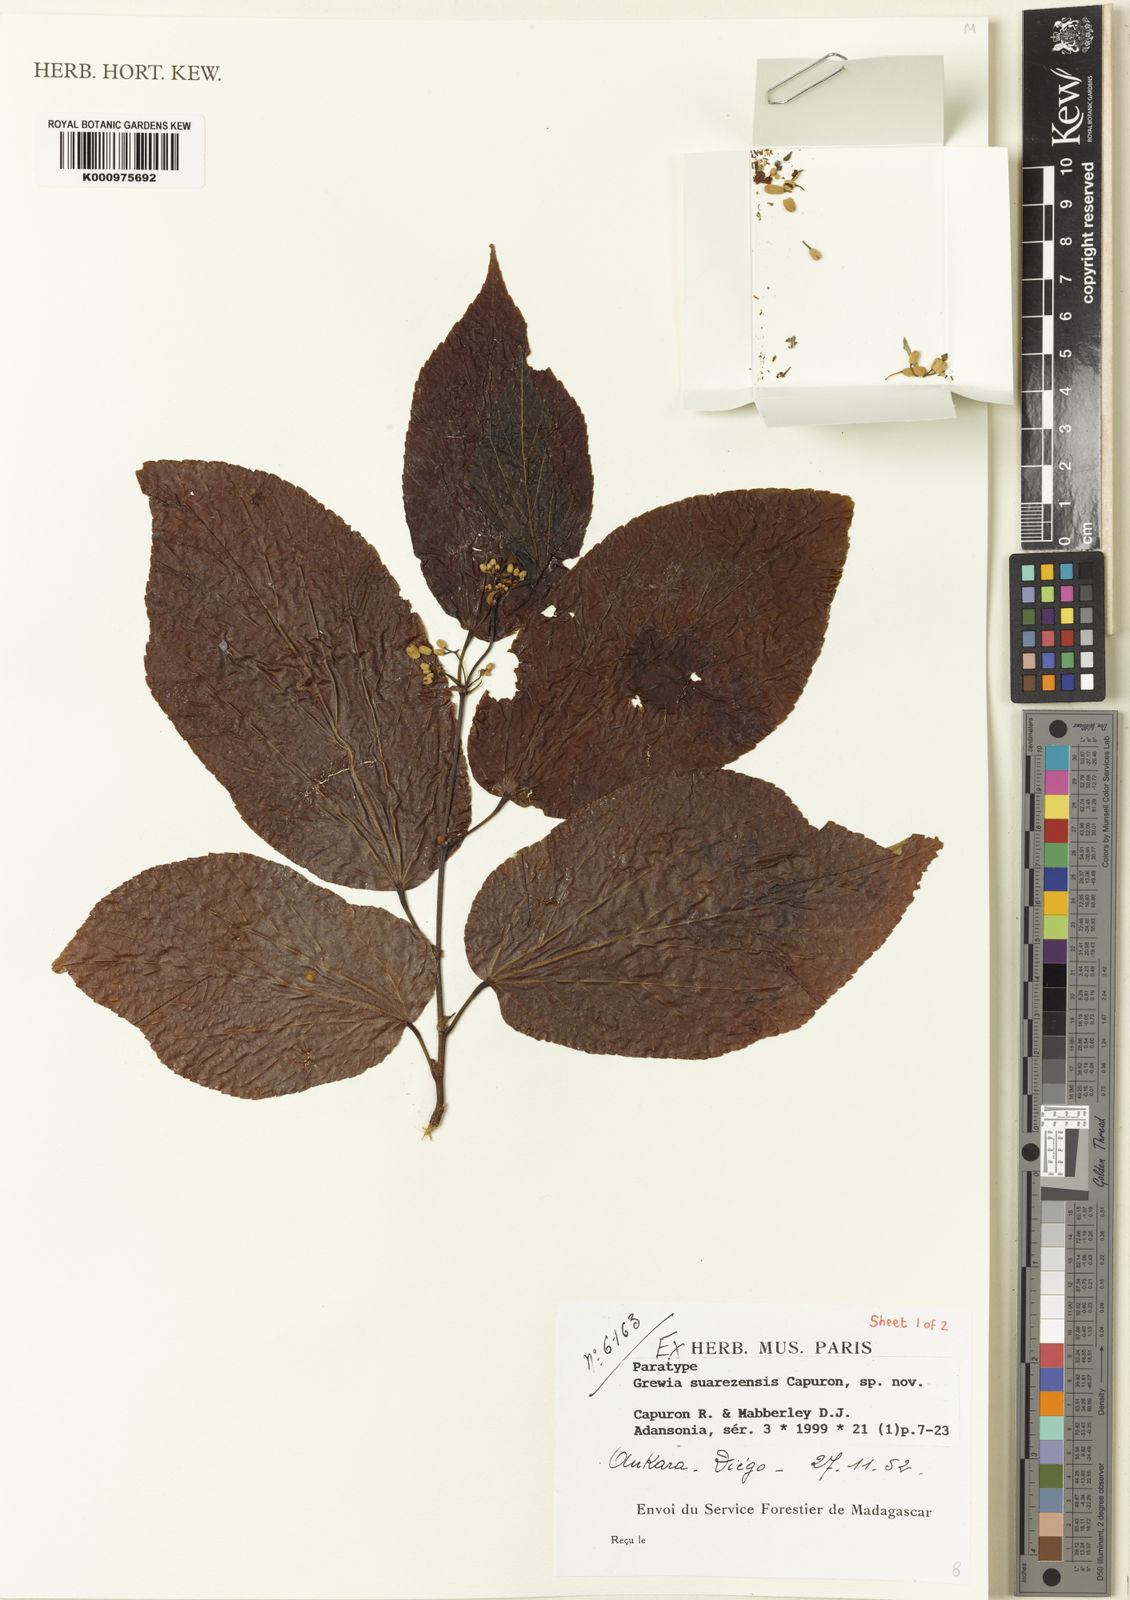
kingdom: Plantae
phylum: Tracheophyta
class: Magnoliopsida
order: Malvales
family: Malvaceae
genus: Grewia
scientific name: Grewia suarezensis
